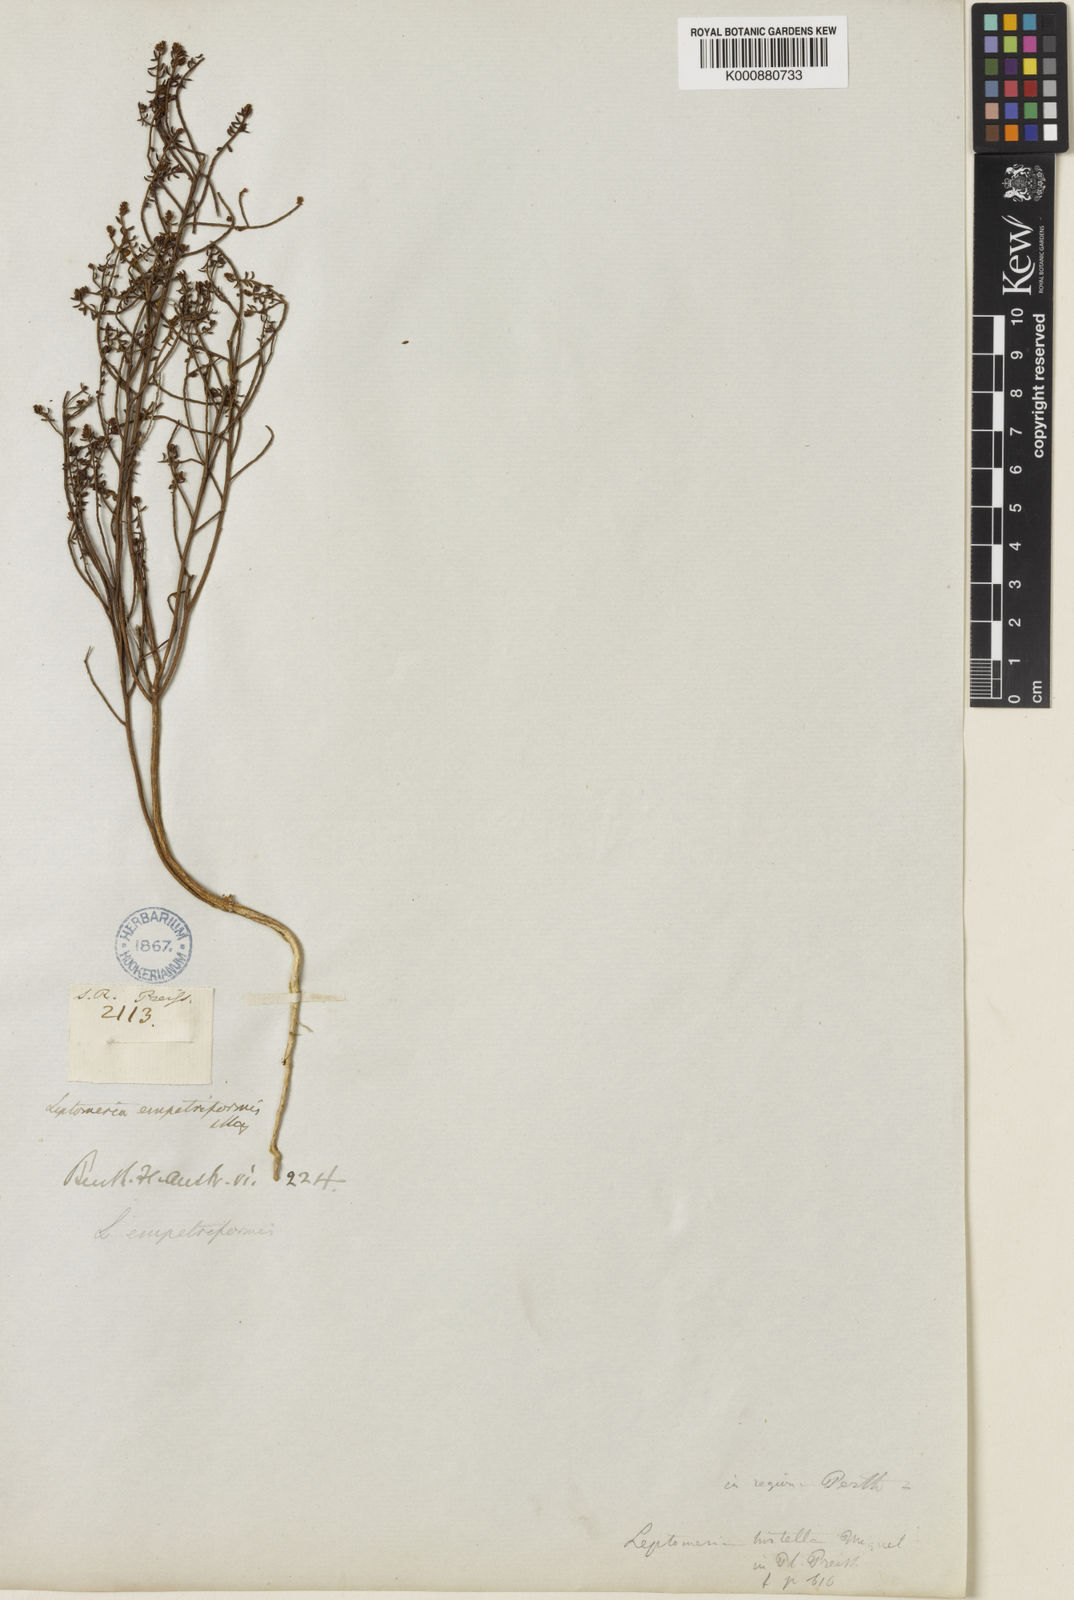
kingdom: Plantae
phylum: Tracheophyta
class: Magnoliopsida
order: Santalales
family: Amphorogynaceae
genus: Leptomeria
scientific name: Leptomeria empetriformis
